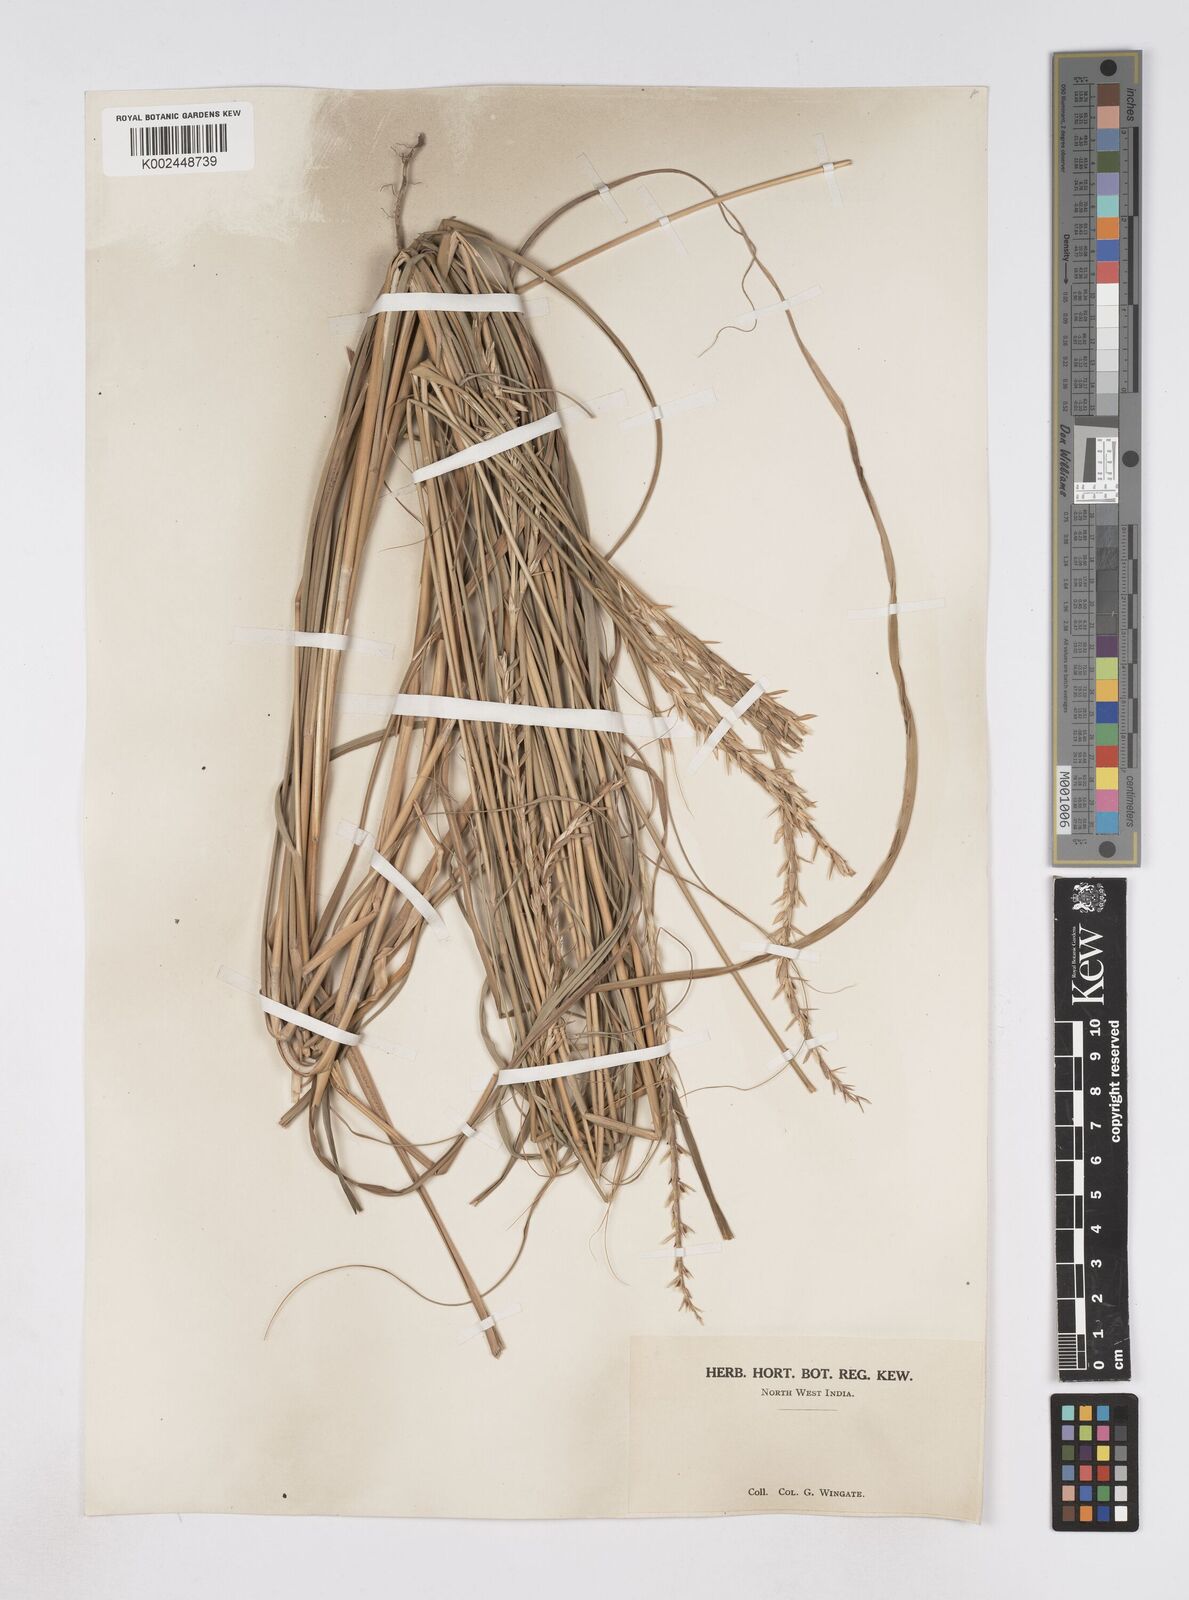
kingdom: Plantae
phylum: Tracheophyta
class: Liliopsida
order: Poales
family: Poaceae
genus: Phacelurus
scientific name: Phacelurus speciosus
